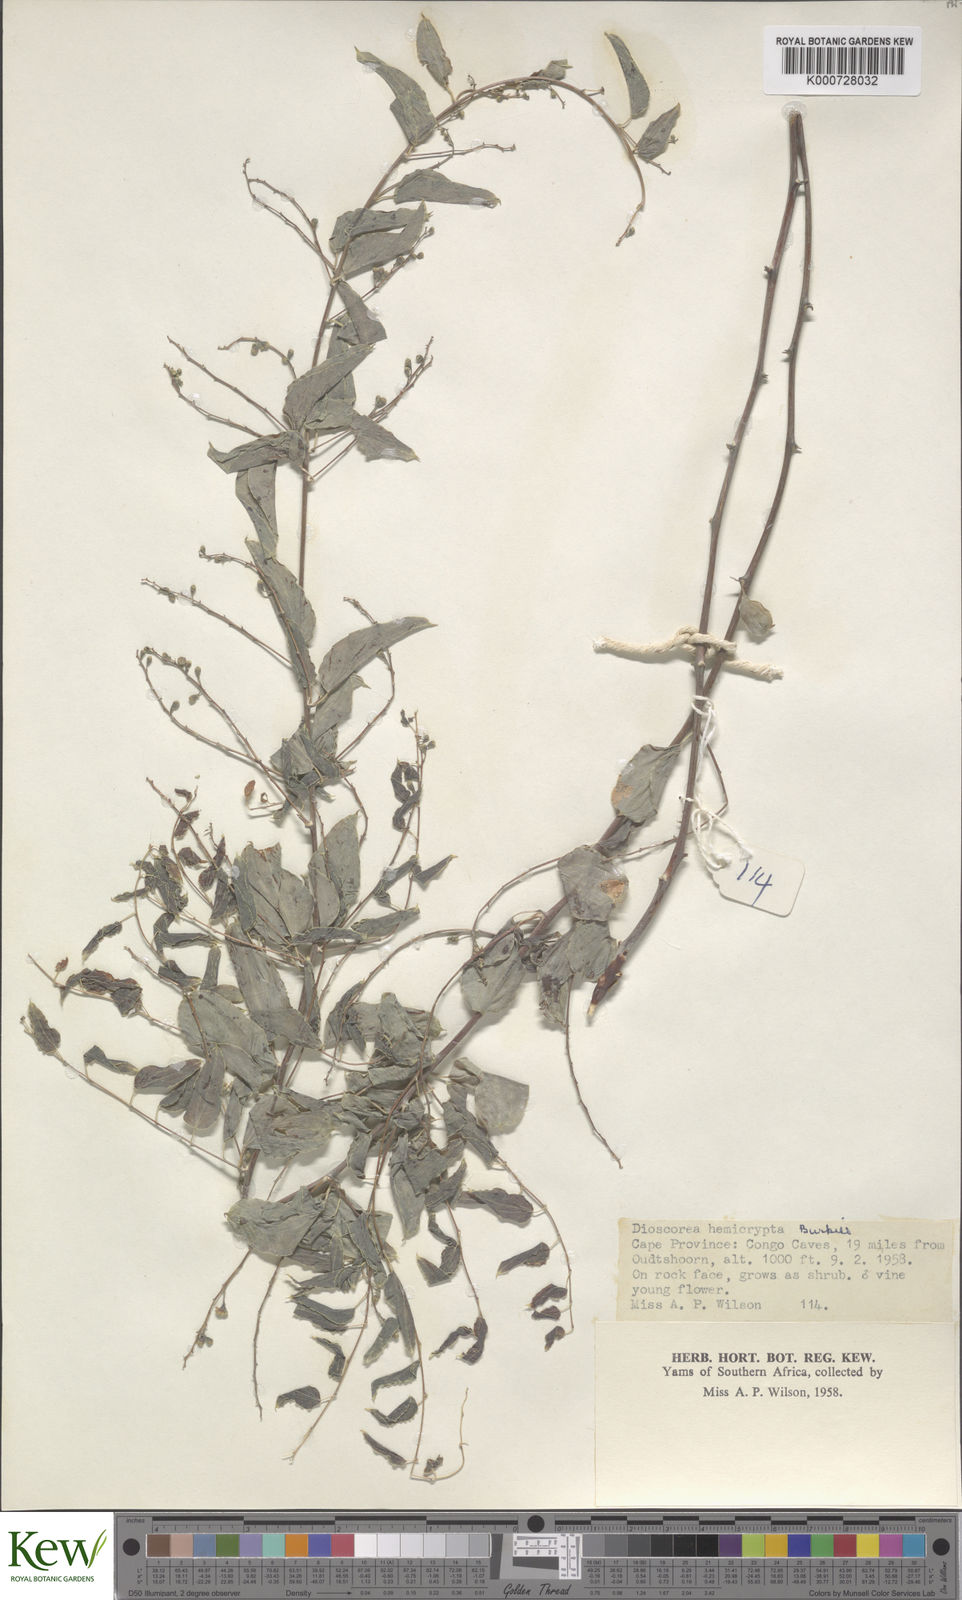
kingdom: Plantae
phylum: Tracheophyta
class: Liliopsida
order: Dioscoreales
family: Dioscoreaceae
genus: Dioscorea
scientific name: Dioscorea hemicrypta
